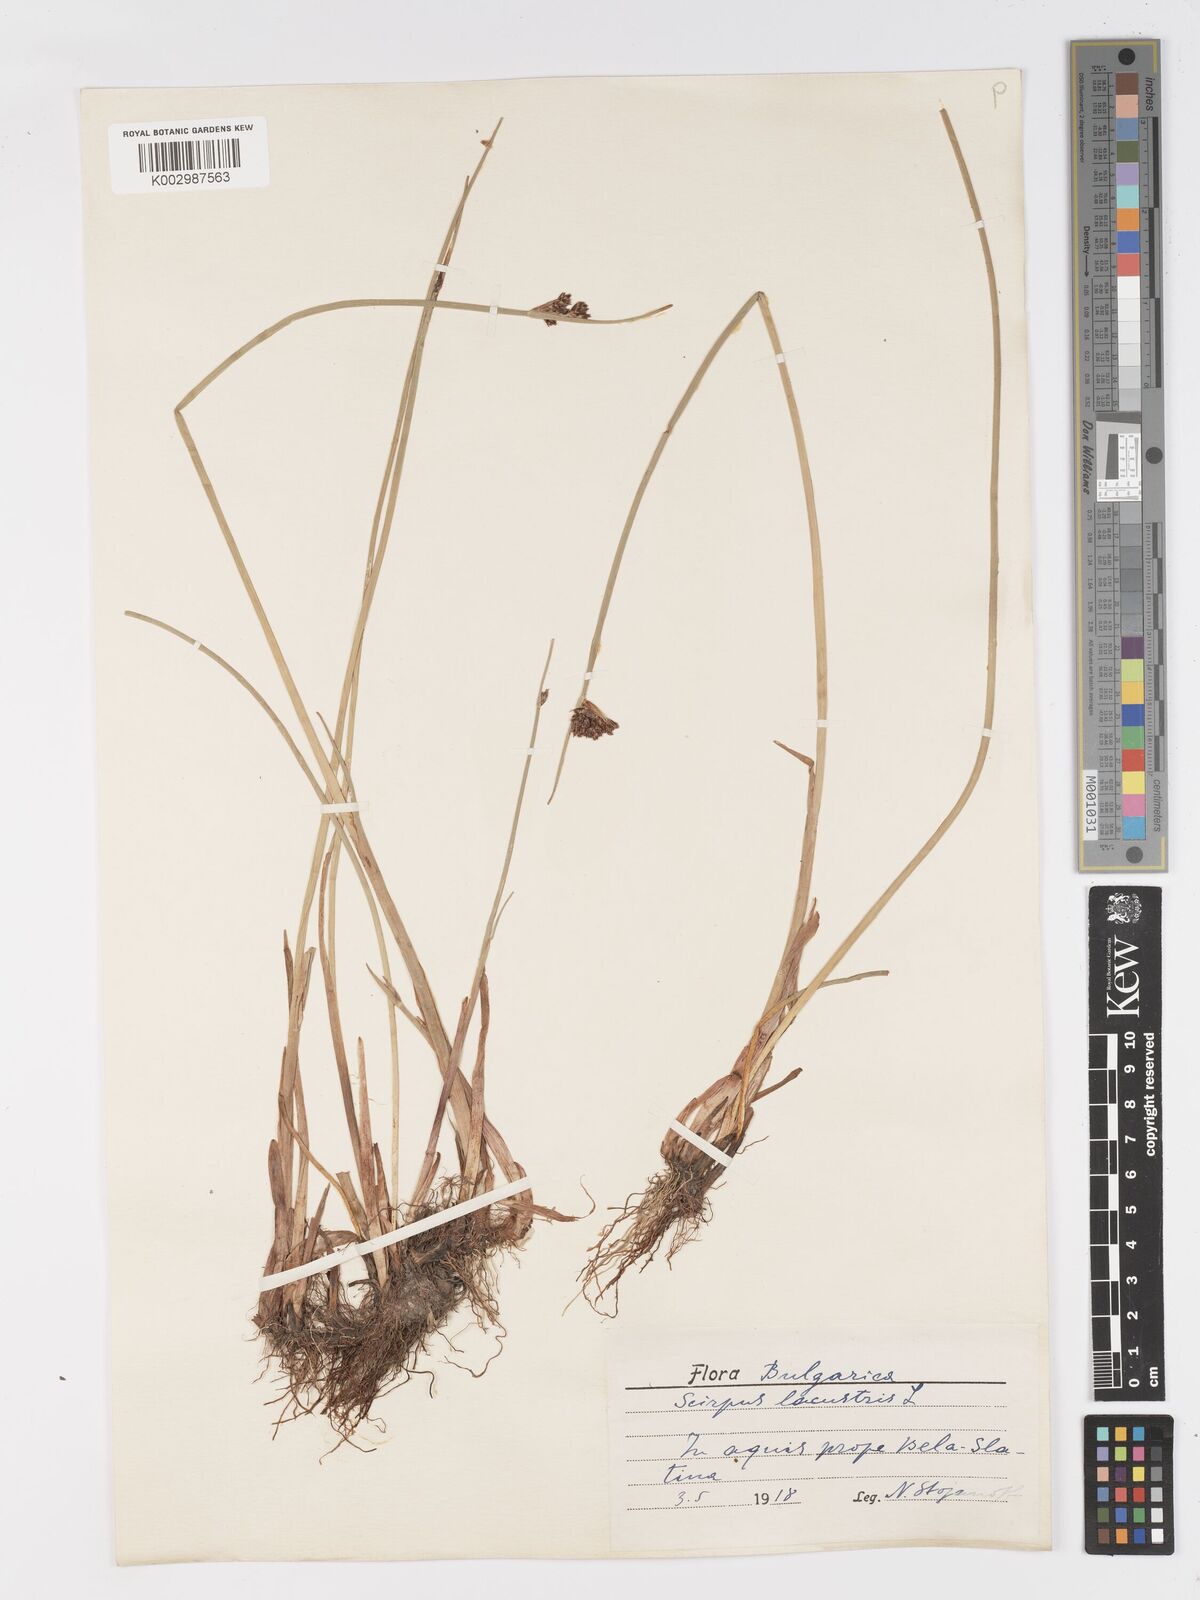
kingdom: Plantae
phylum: Tracheophyta
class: Liliopsida
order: Poales
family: Cyperaceae
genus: Schoenoplectus
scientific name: Schoenoplectus lacustris
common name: Common club-rush
